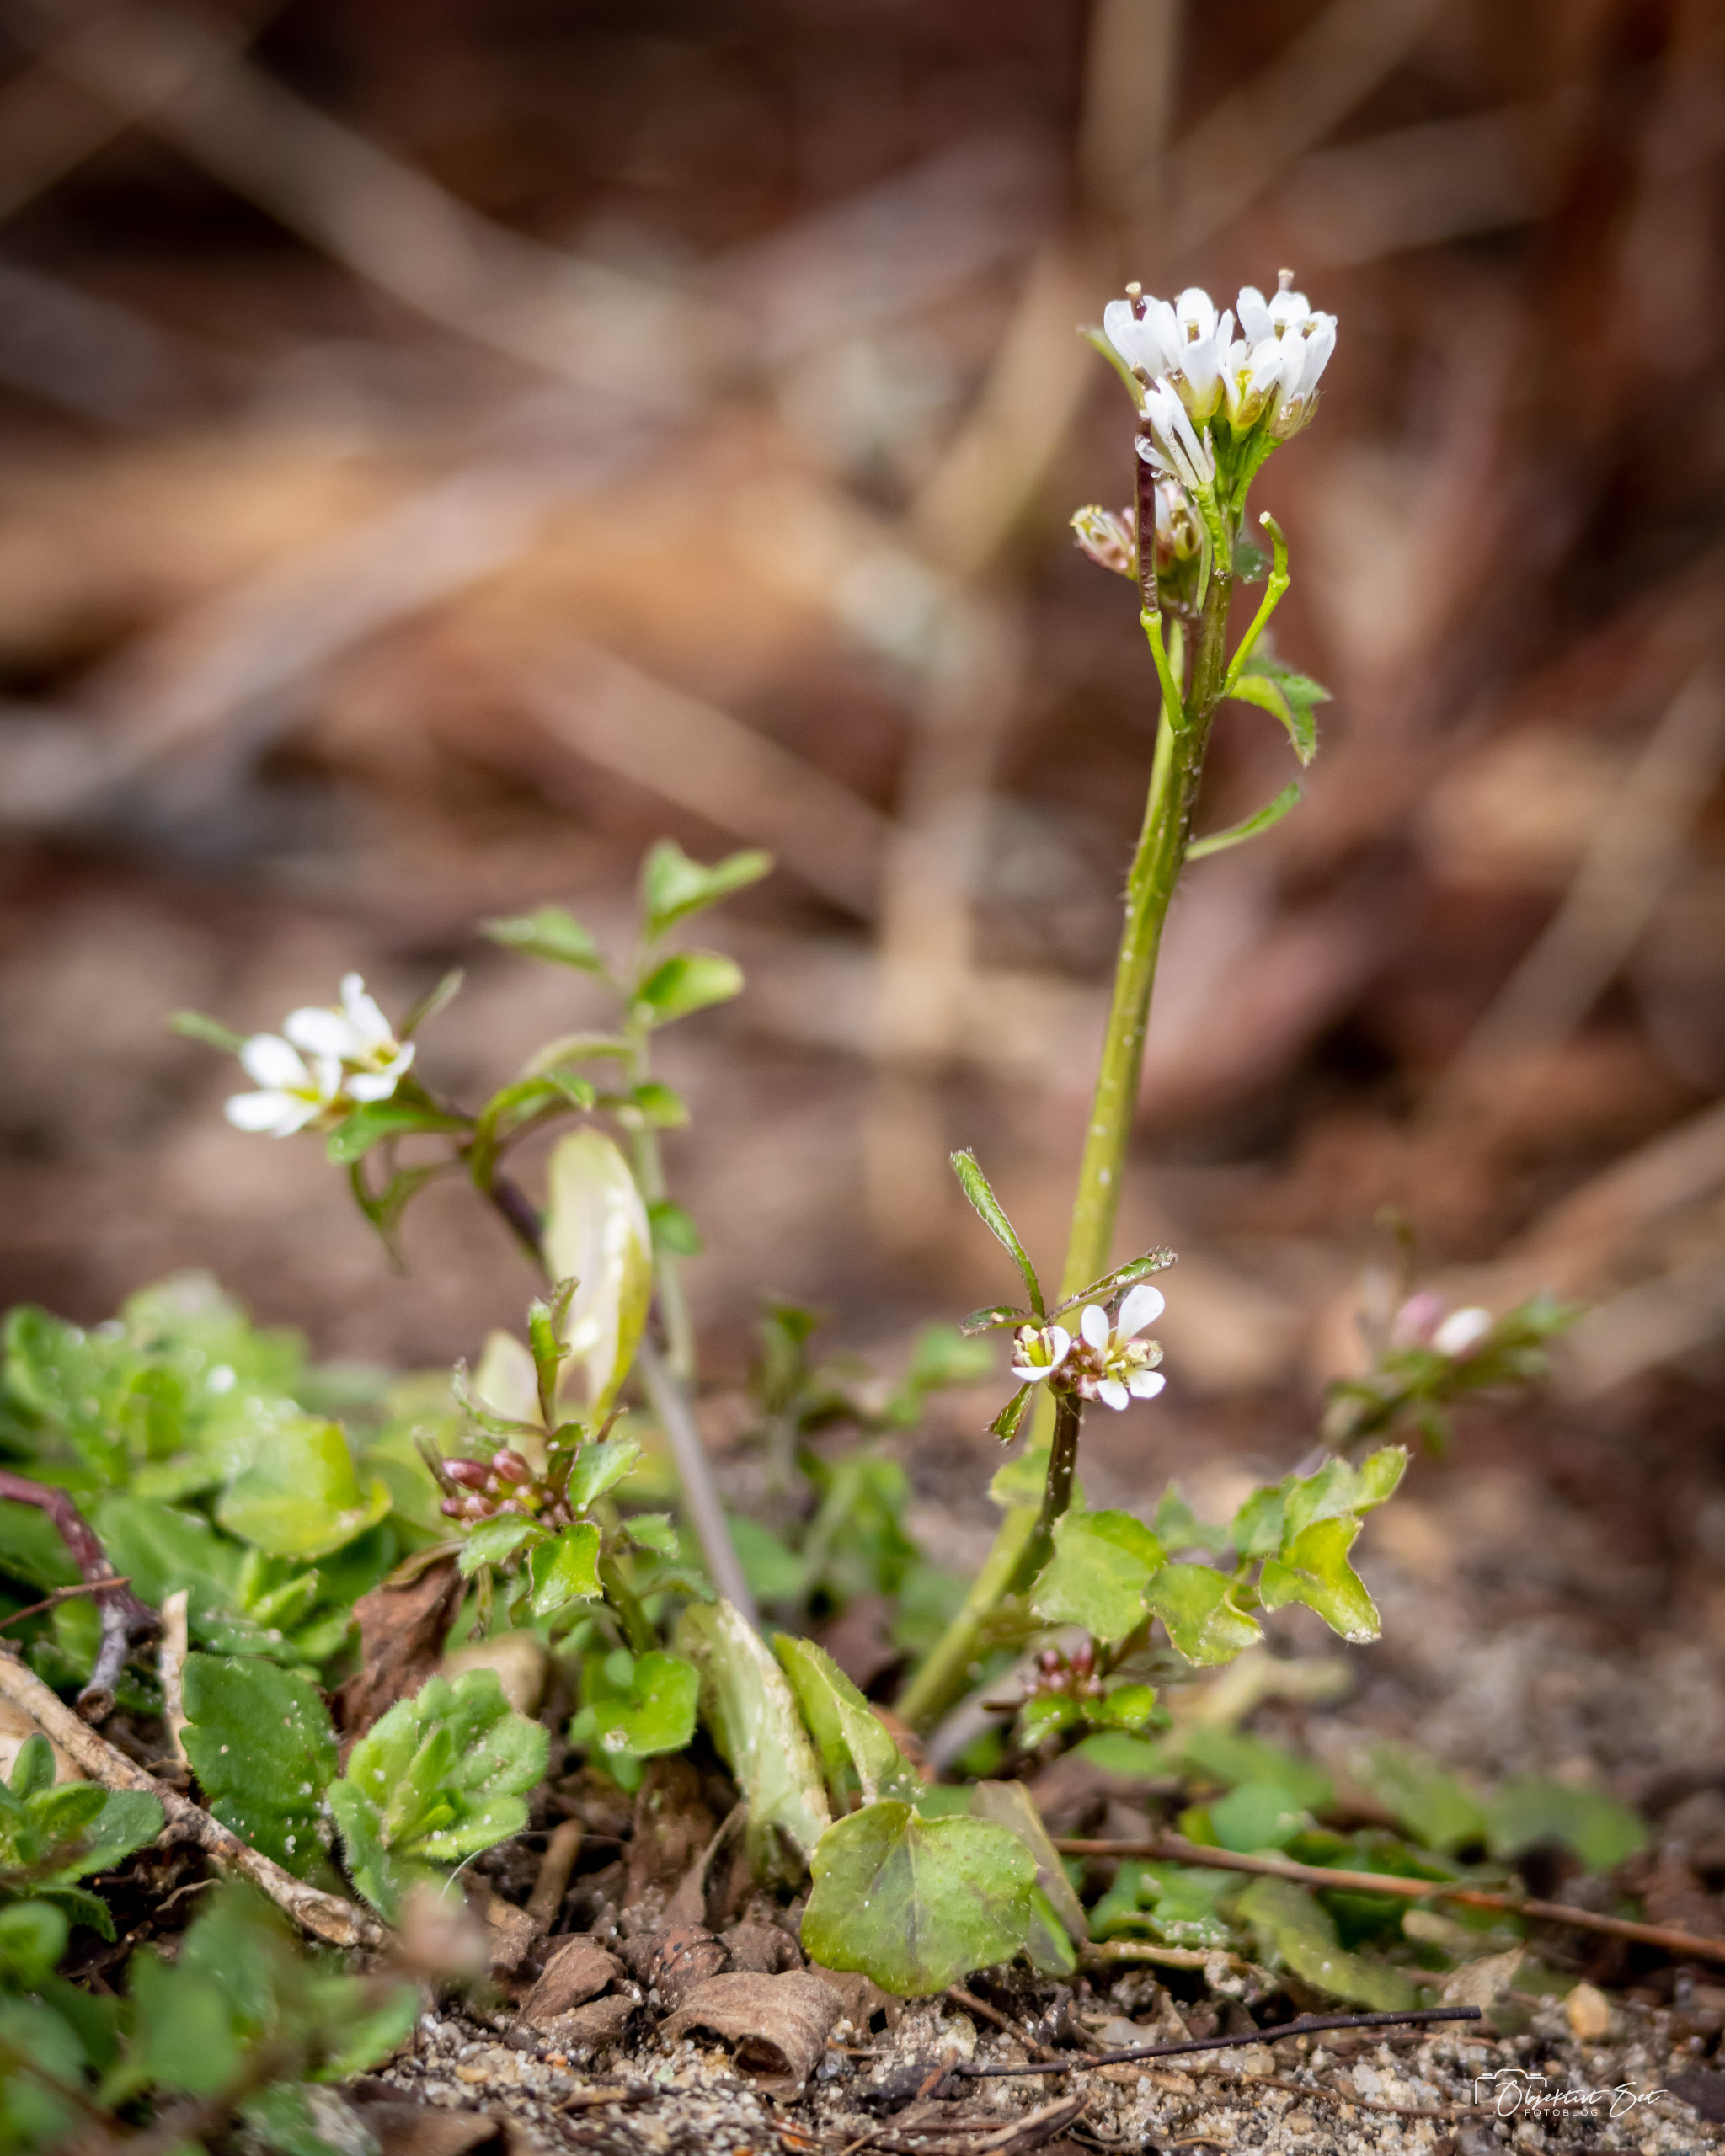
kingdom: Plantae
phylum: Tracheophyta
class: Magnoliopsida
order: Brassicales
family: Brassicaceae
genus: Cardamine
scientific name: Cardamine hirsuta
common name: Roset-springklap
